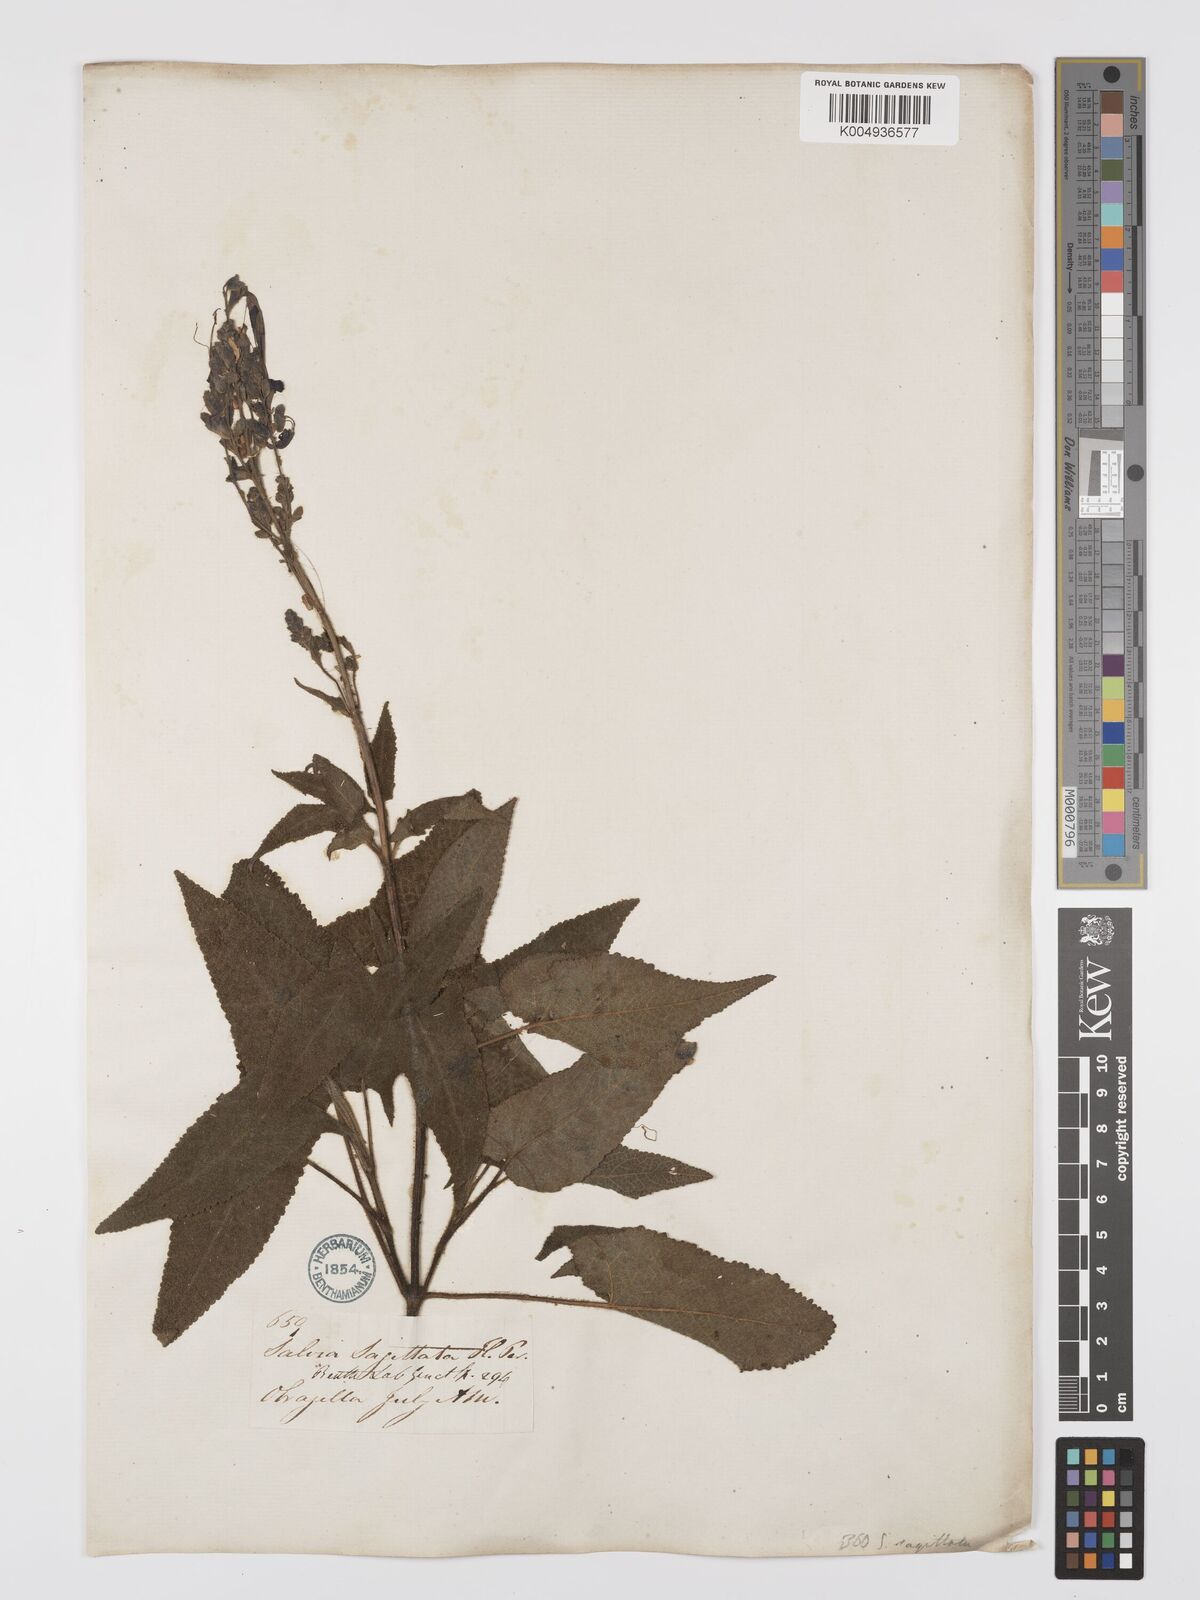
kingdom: Plantae
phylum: Tracheophyta
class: Magnoliopsida
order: Lamiales
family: Lamiaceae
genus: Salvia
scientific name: Salvia sagittata
